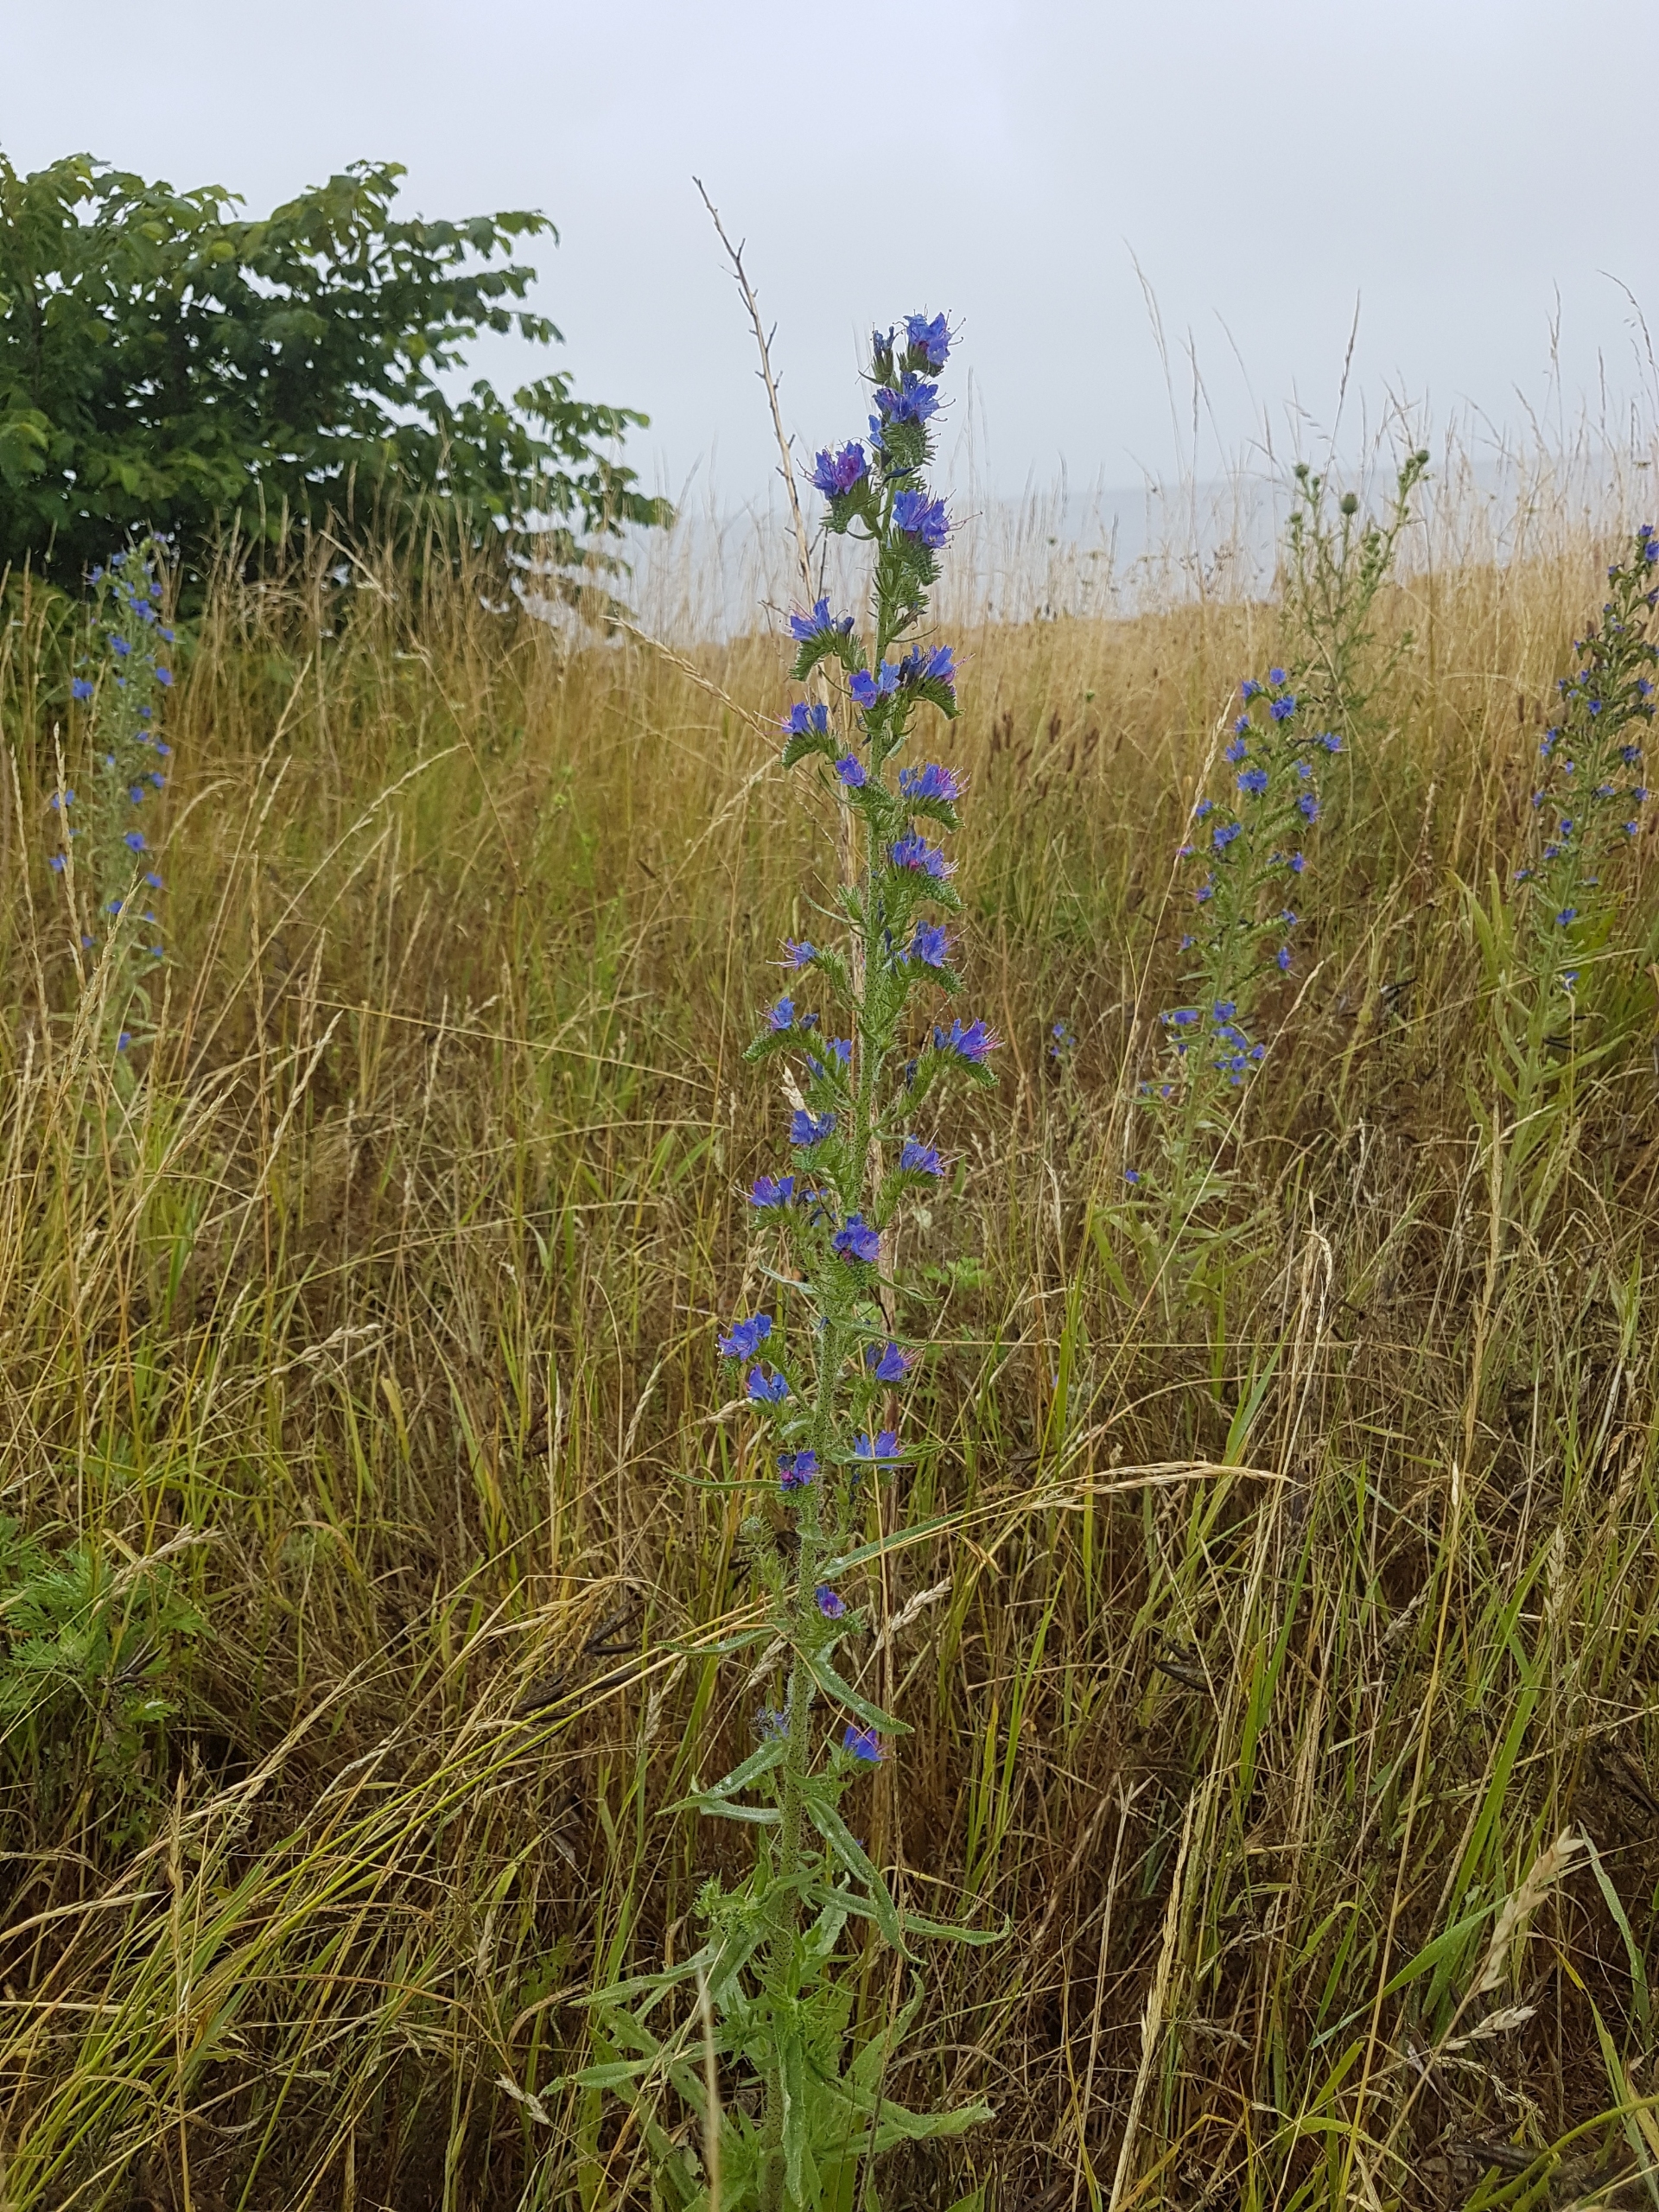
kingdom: Plantae
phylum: Tracheophyta
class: Magnoliopsida
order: Boraginales
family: Boraginaceae
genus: Echium
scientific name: Echium vulgare
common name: Slangehoved
